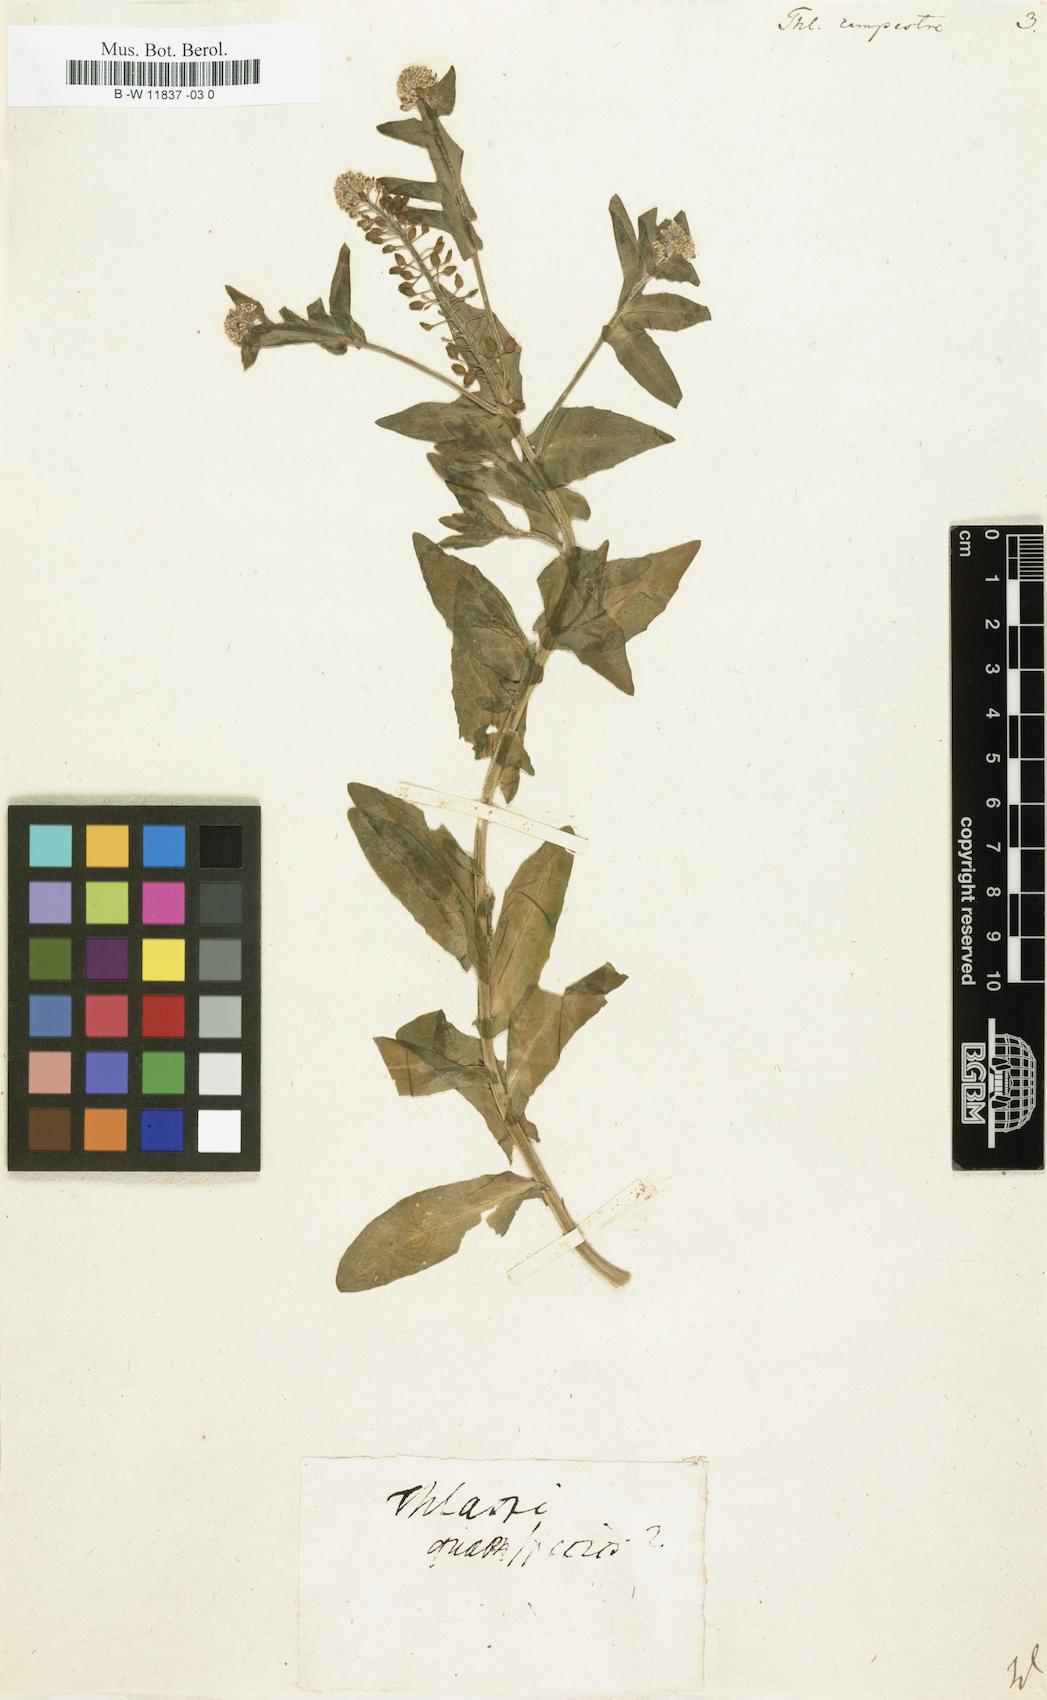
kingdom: Plantae
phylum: Tracheophyta
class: Magnoliopsida
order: Brassicales
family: Brassicaceae
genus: Lepidium
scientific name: Lepidium campestre
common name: Field pepperwort
